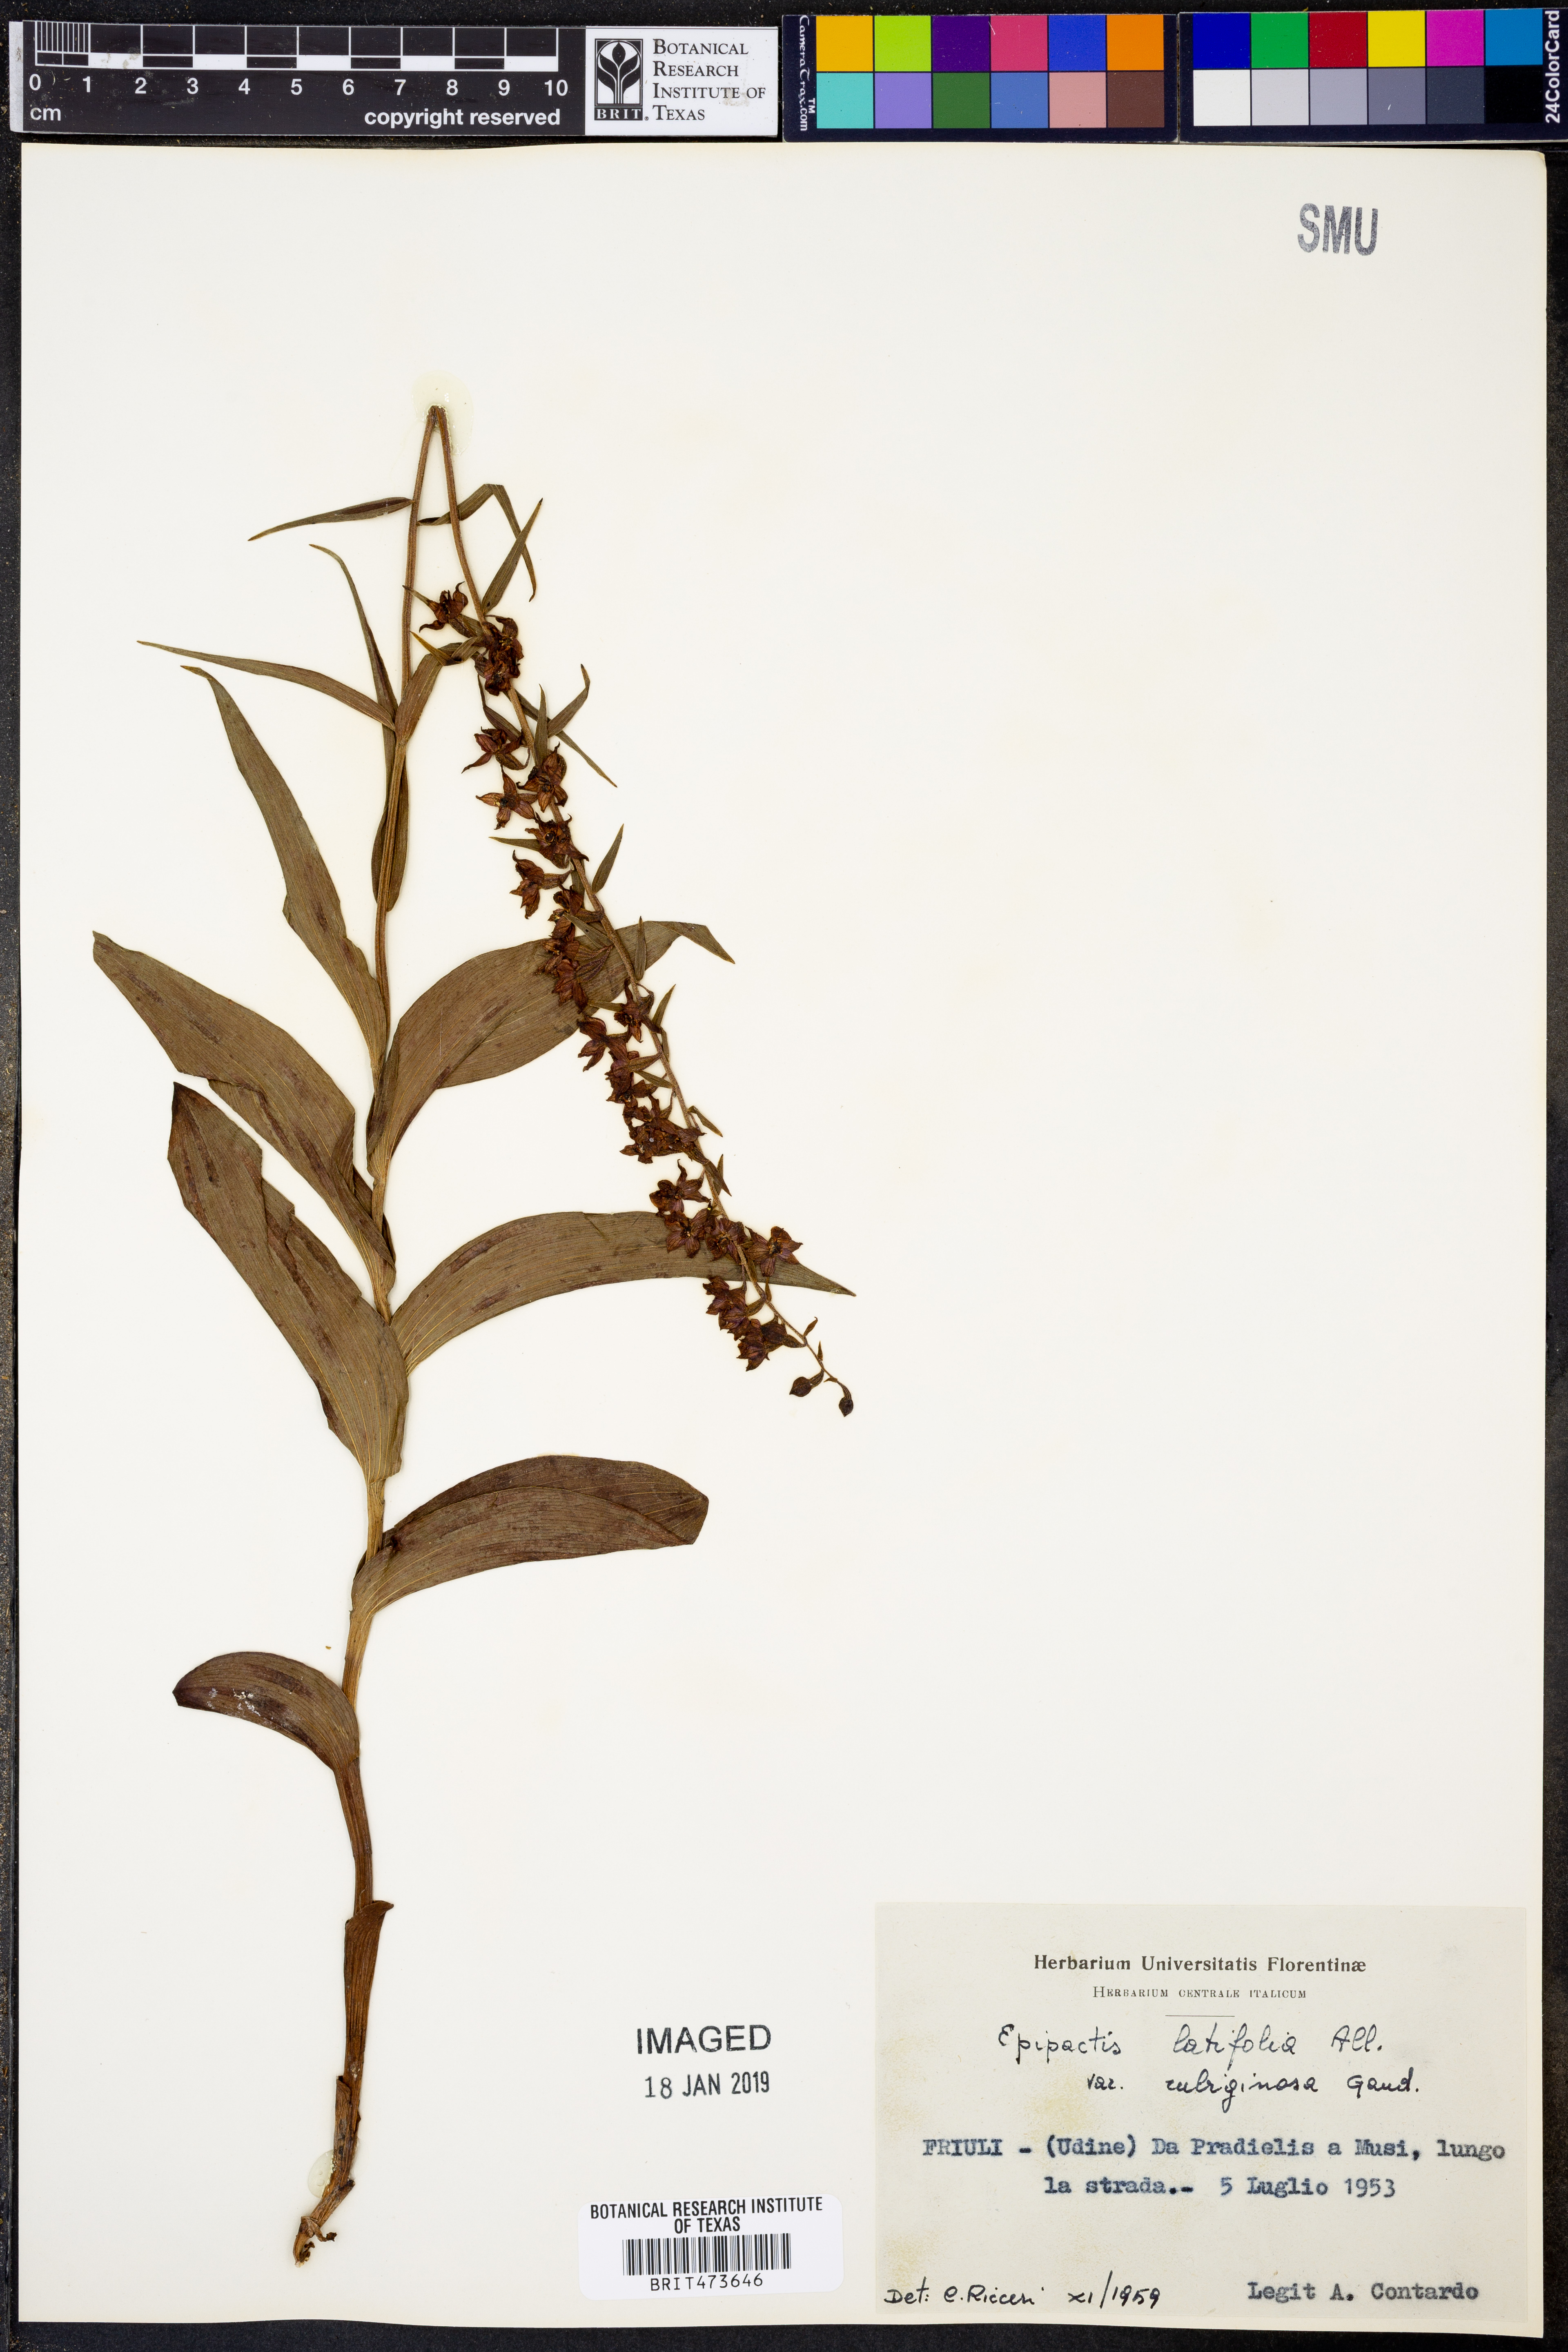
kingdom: Plantae
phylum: Tracheophyta
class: Liliopsida
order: Asparagales
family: Orchidaceae
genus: Epipactis
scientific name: Epipactis atrorubens
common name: Dark-red helleborine
